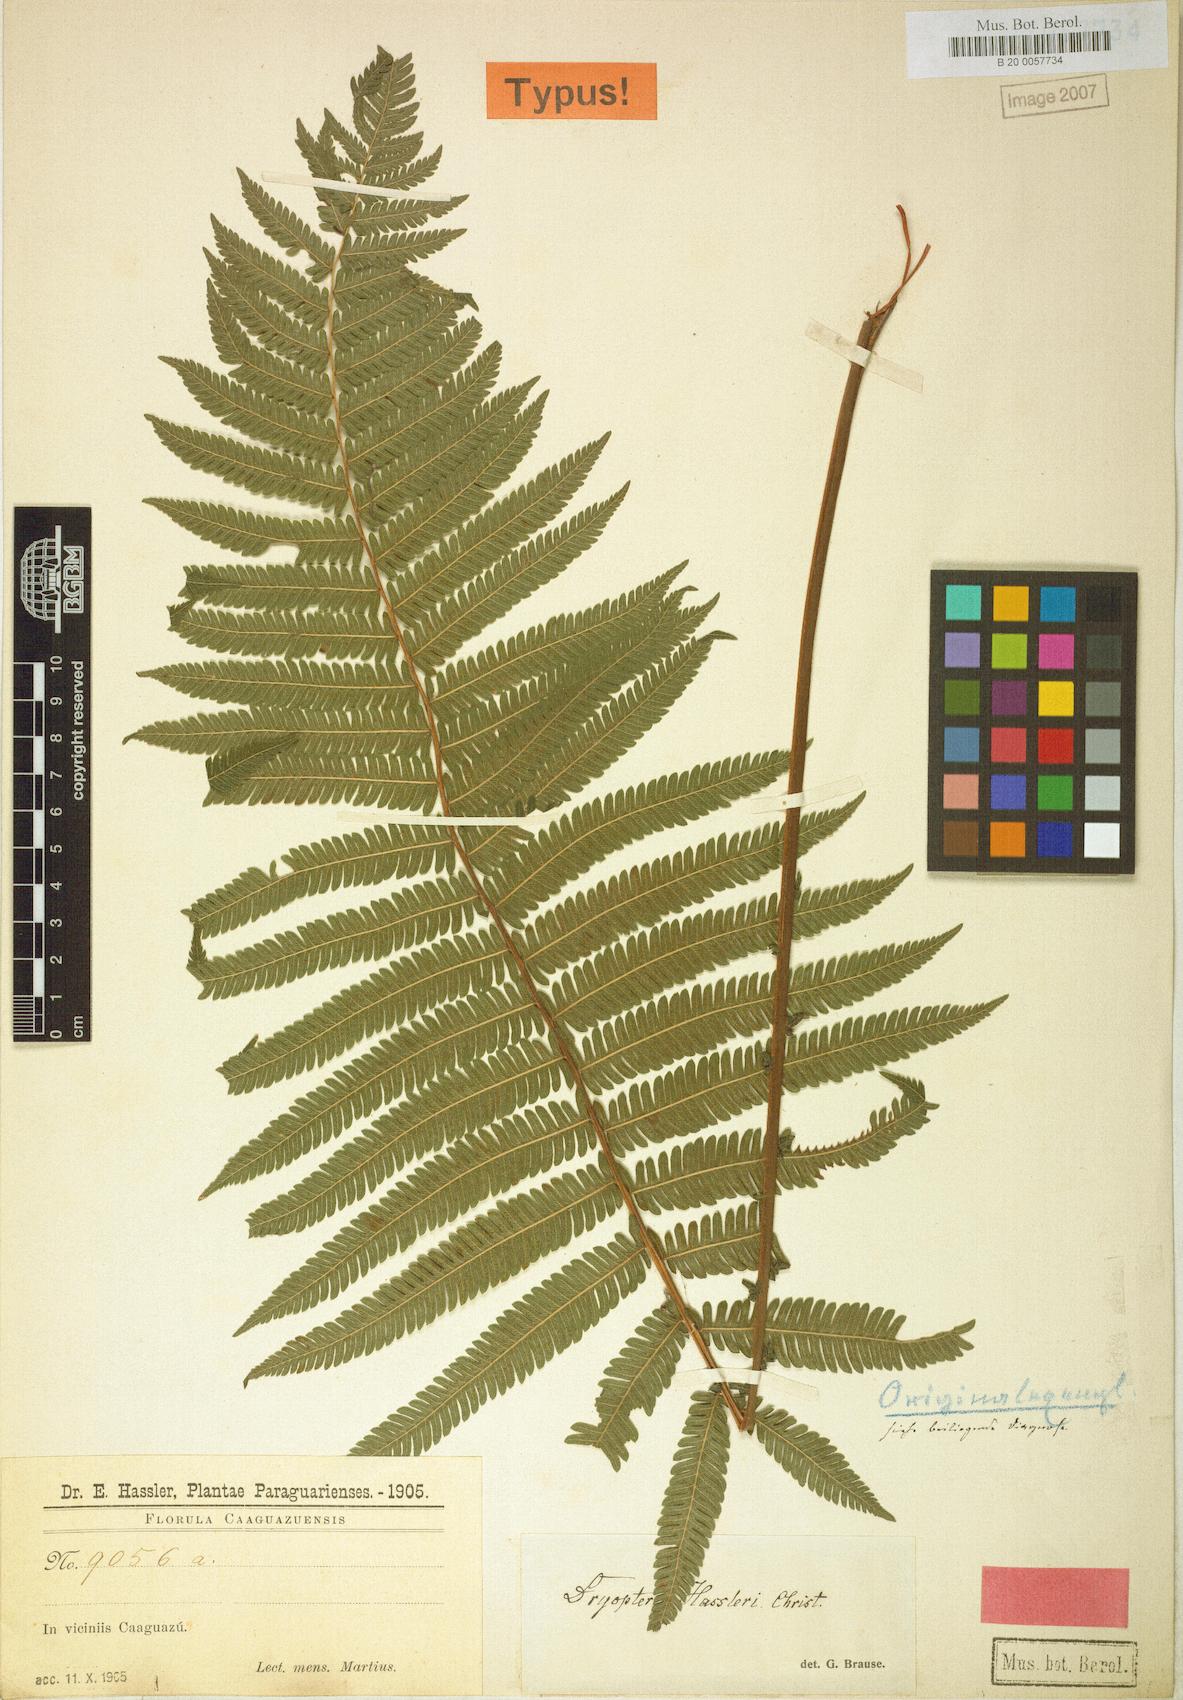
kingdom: Plantae
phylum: Tracheophyta
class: Polypodiopsida
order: Polypodiales
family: Dryopteridaceae
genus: Dryopteris
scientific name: Dryopteris hasseltii
